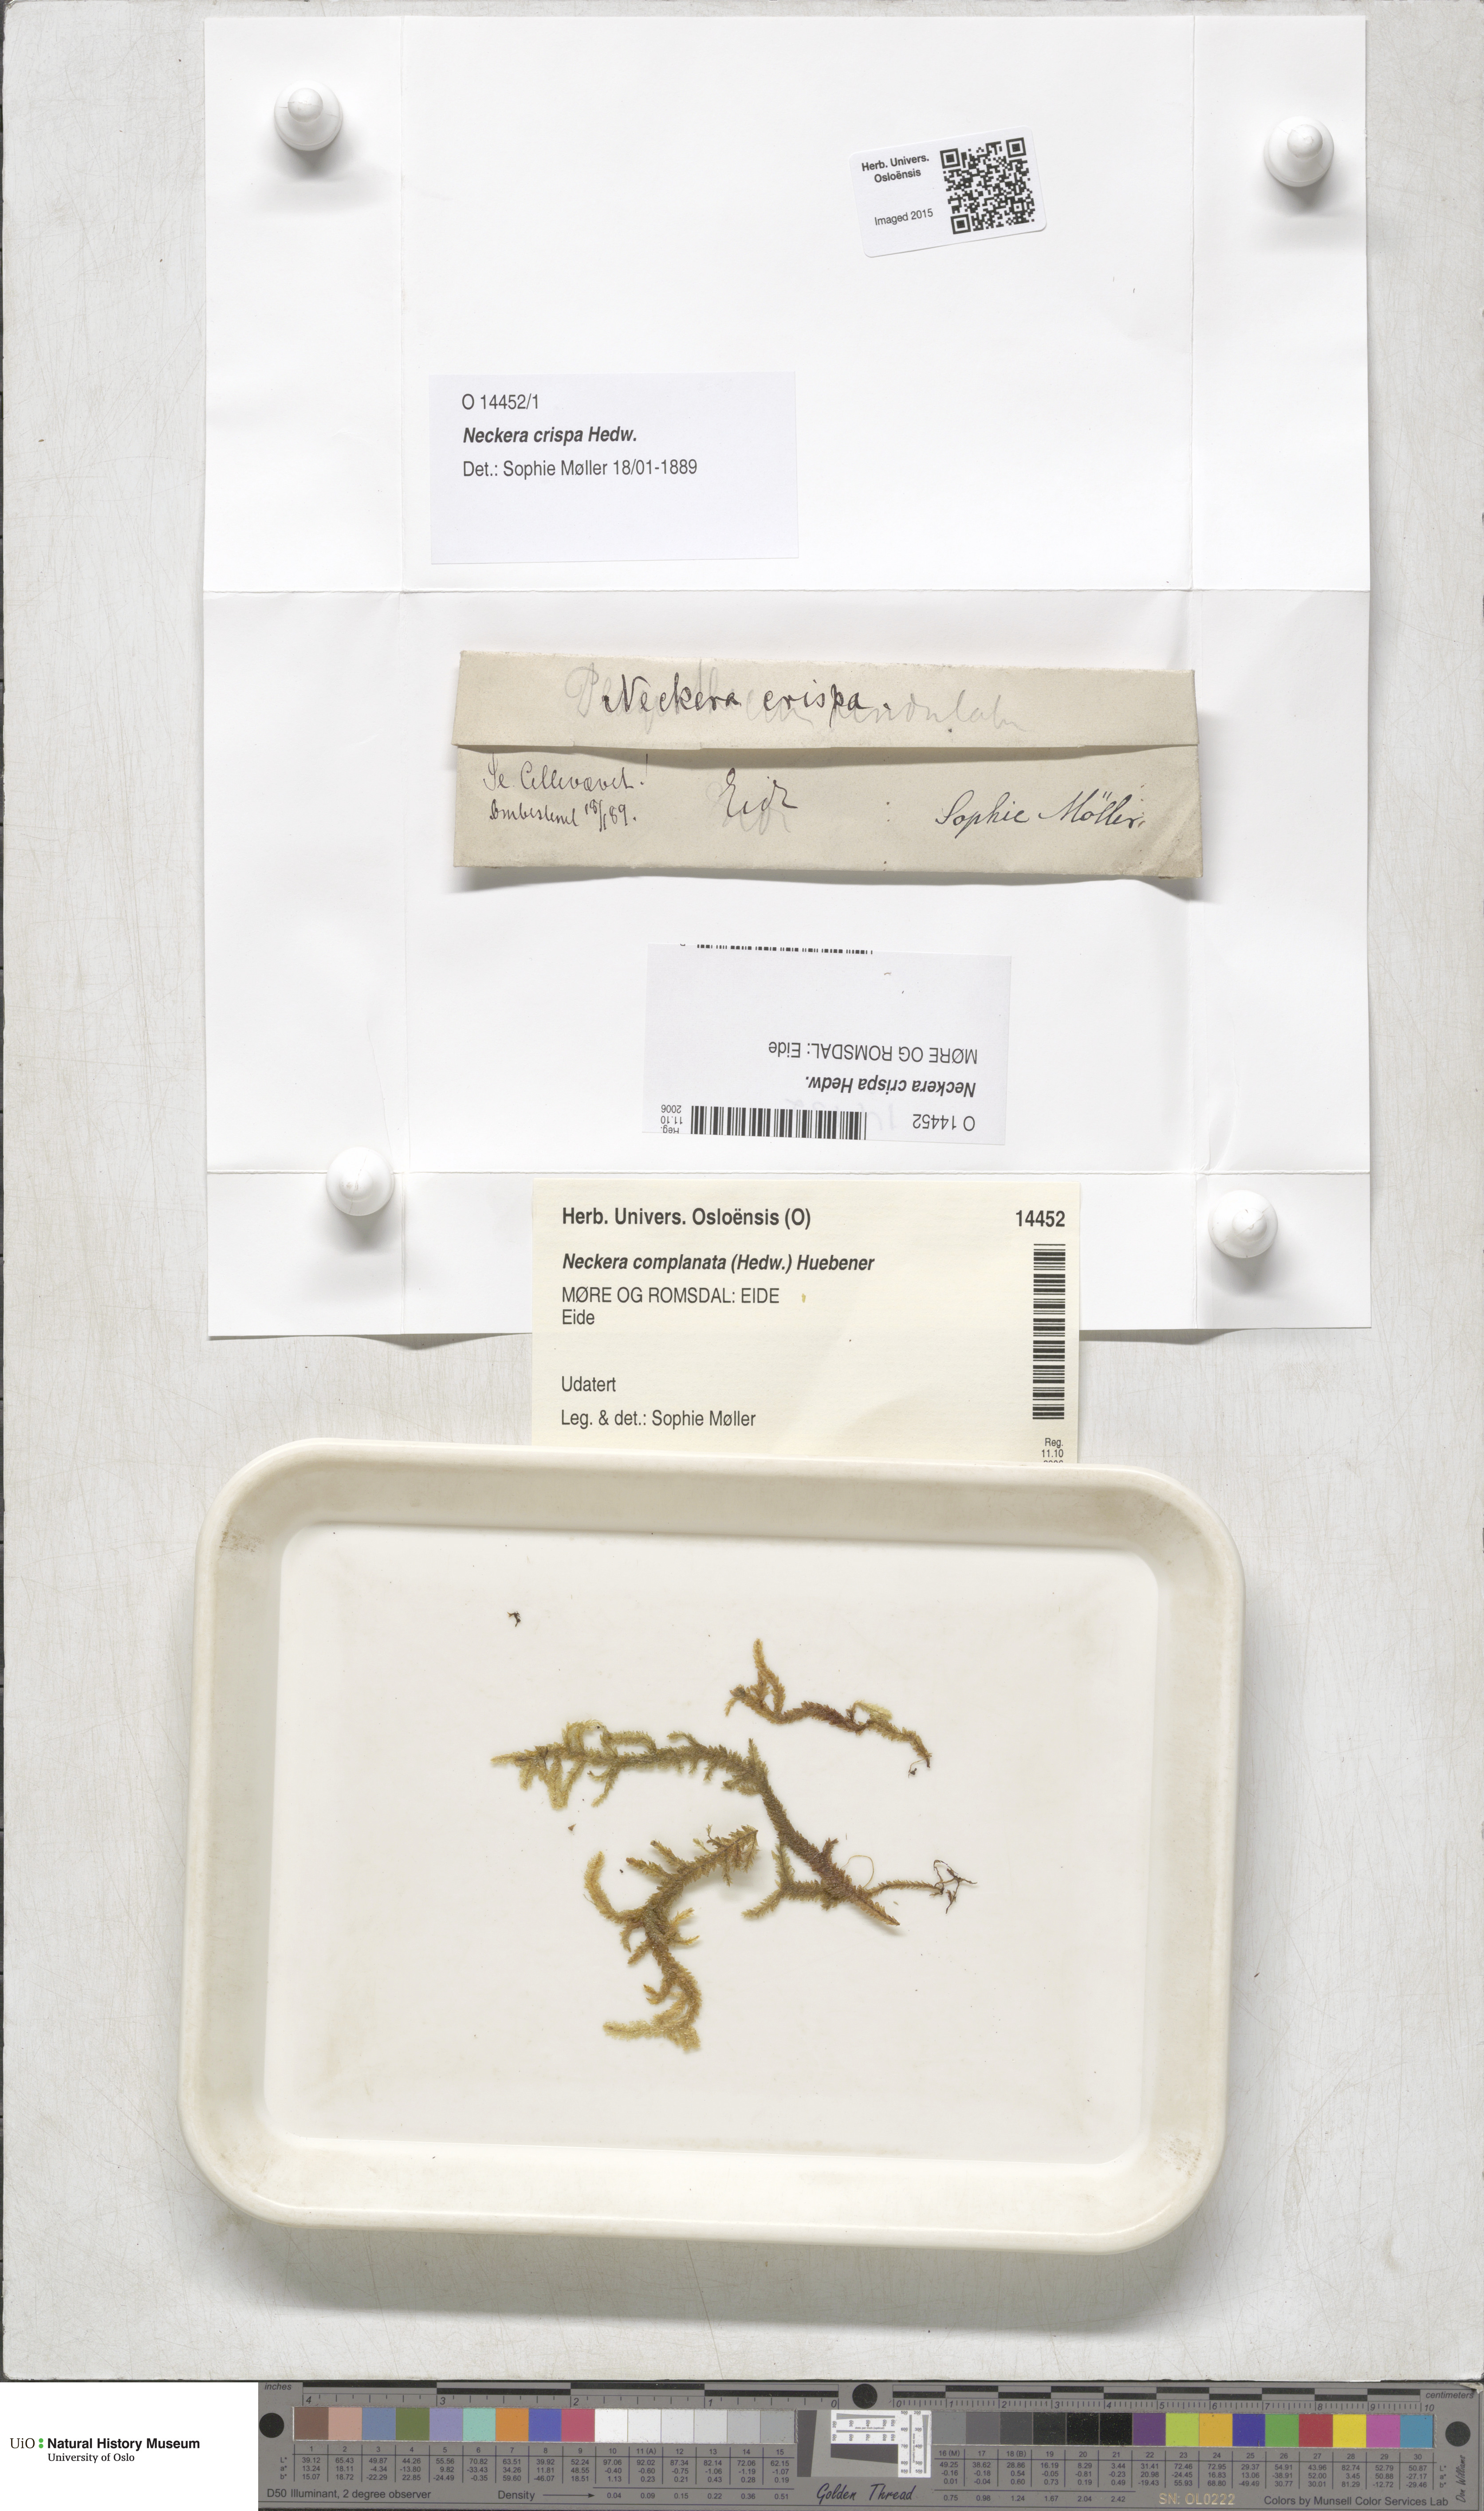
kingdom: Plantae
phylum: Bryophyta
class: Bryopsida
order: Hypnales
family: Neckeraceae
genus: Exsertotheca
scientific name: Exsertotheca crispa
